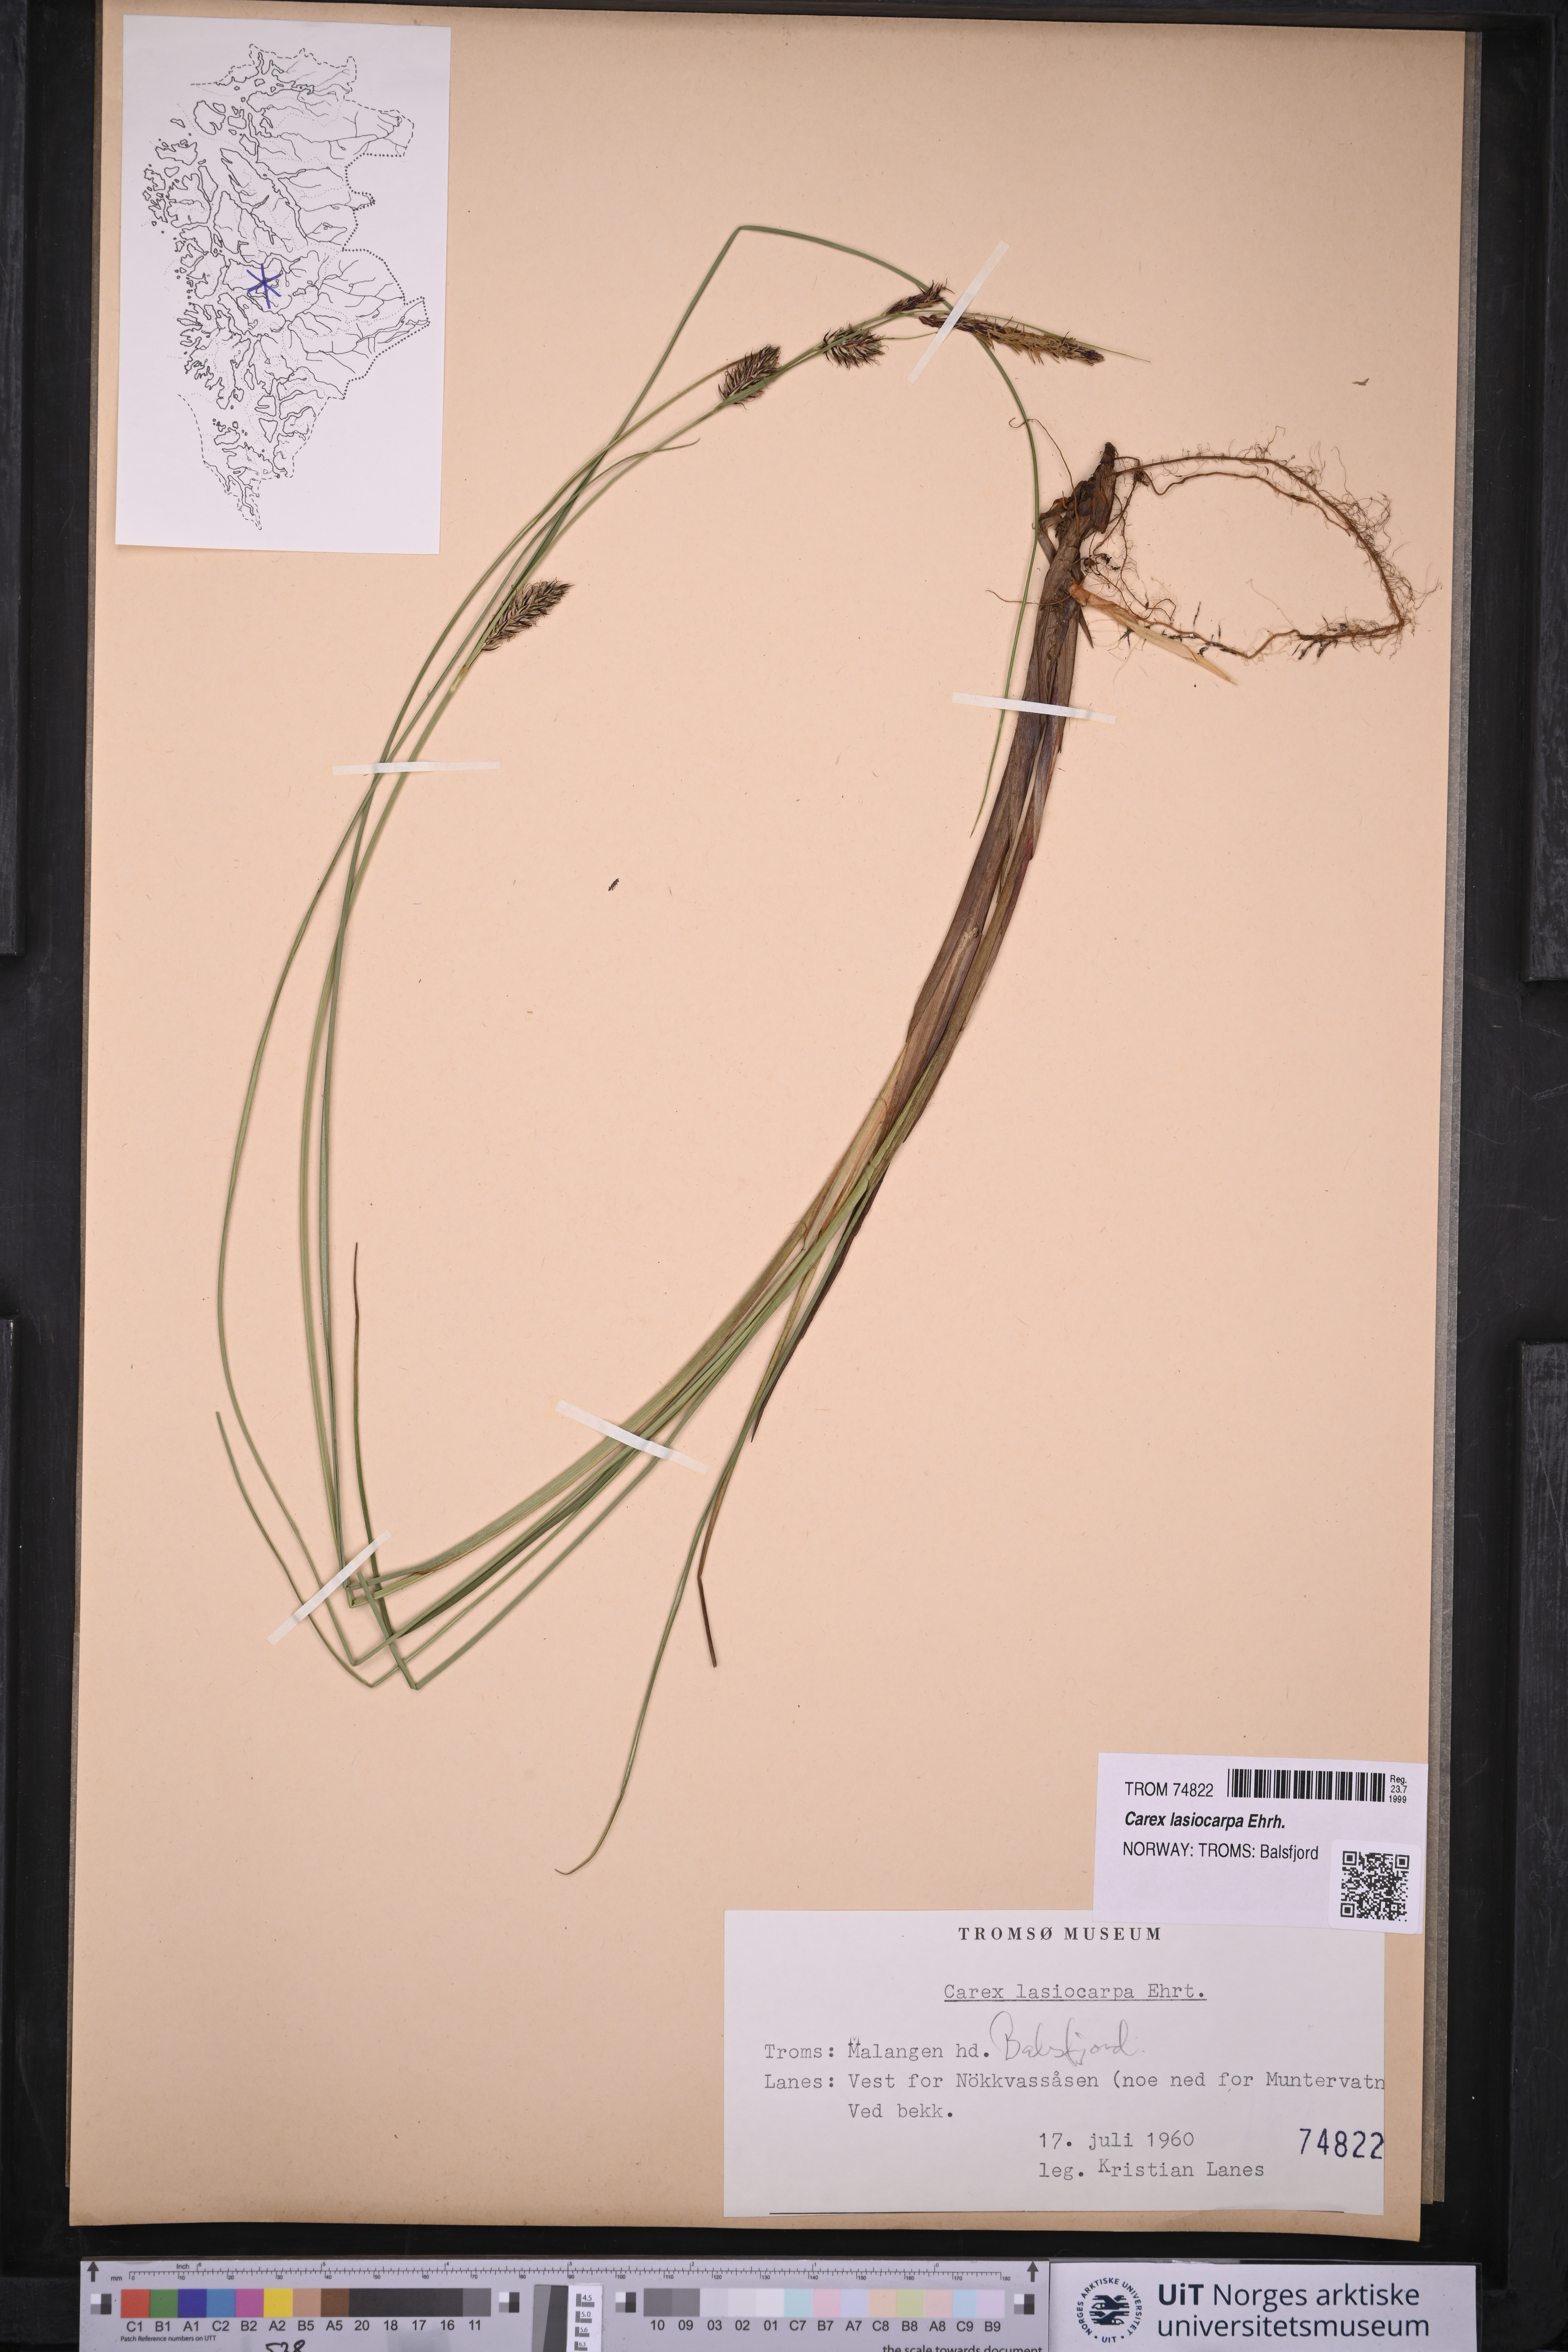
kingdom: Plantae
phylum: Tracheophyta
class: Liliopsida
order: Poales
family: Cyperaceae
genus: Carex
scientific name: Carex lasiocarpa
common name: Slender sedge
